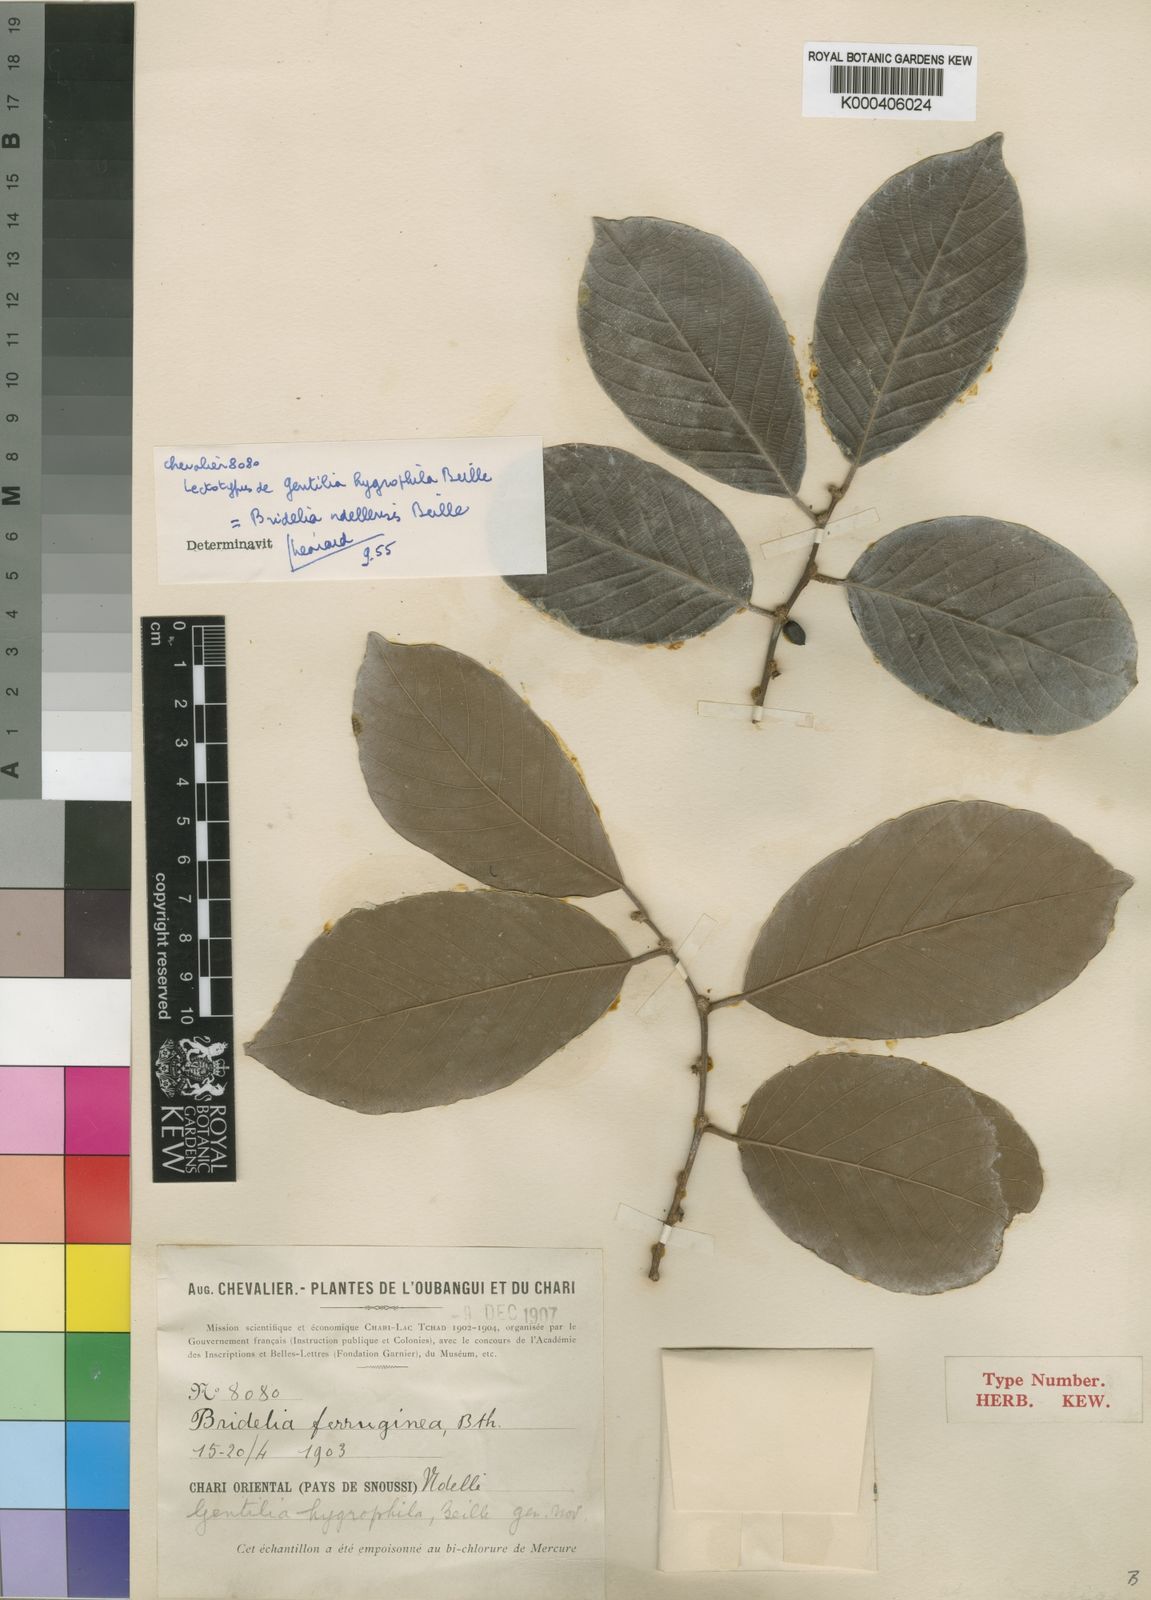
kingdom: Plantae
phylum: Tracheophyta
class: Magnoliopsida
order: Malpighiales
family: Phyllanthaceae
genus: Bridelia
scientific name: Bridelia ndellensis
